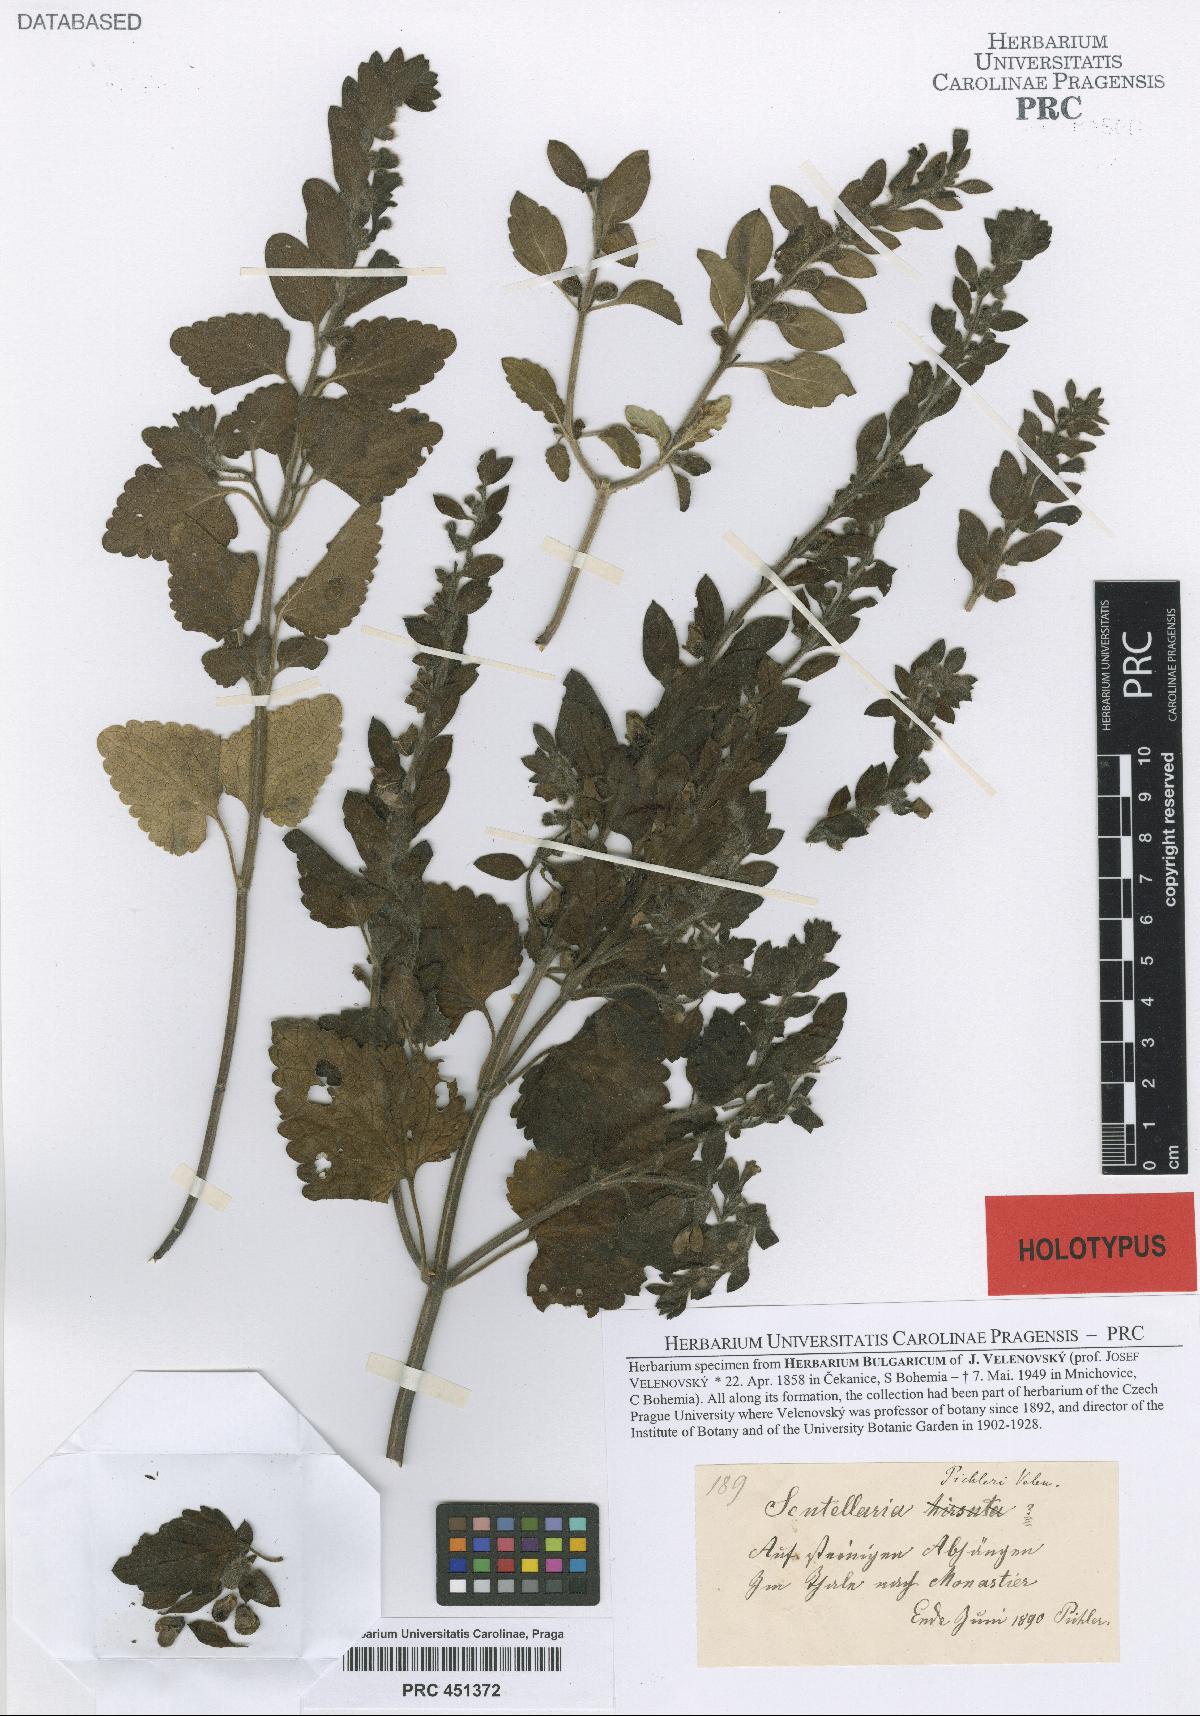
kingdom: Plantae
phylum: Tracheophyta
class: Magnoliopsida
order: Lamiales
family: Lamiaceae
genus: Scutellaria
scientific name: Scutellaria albida
